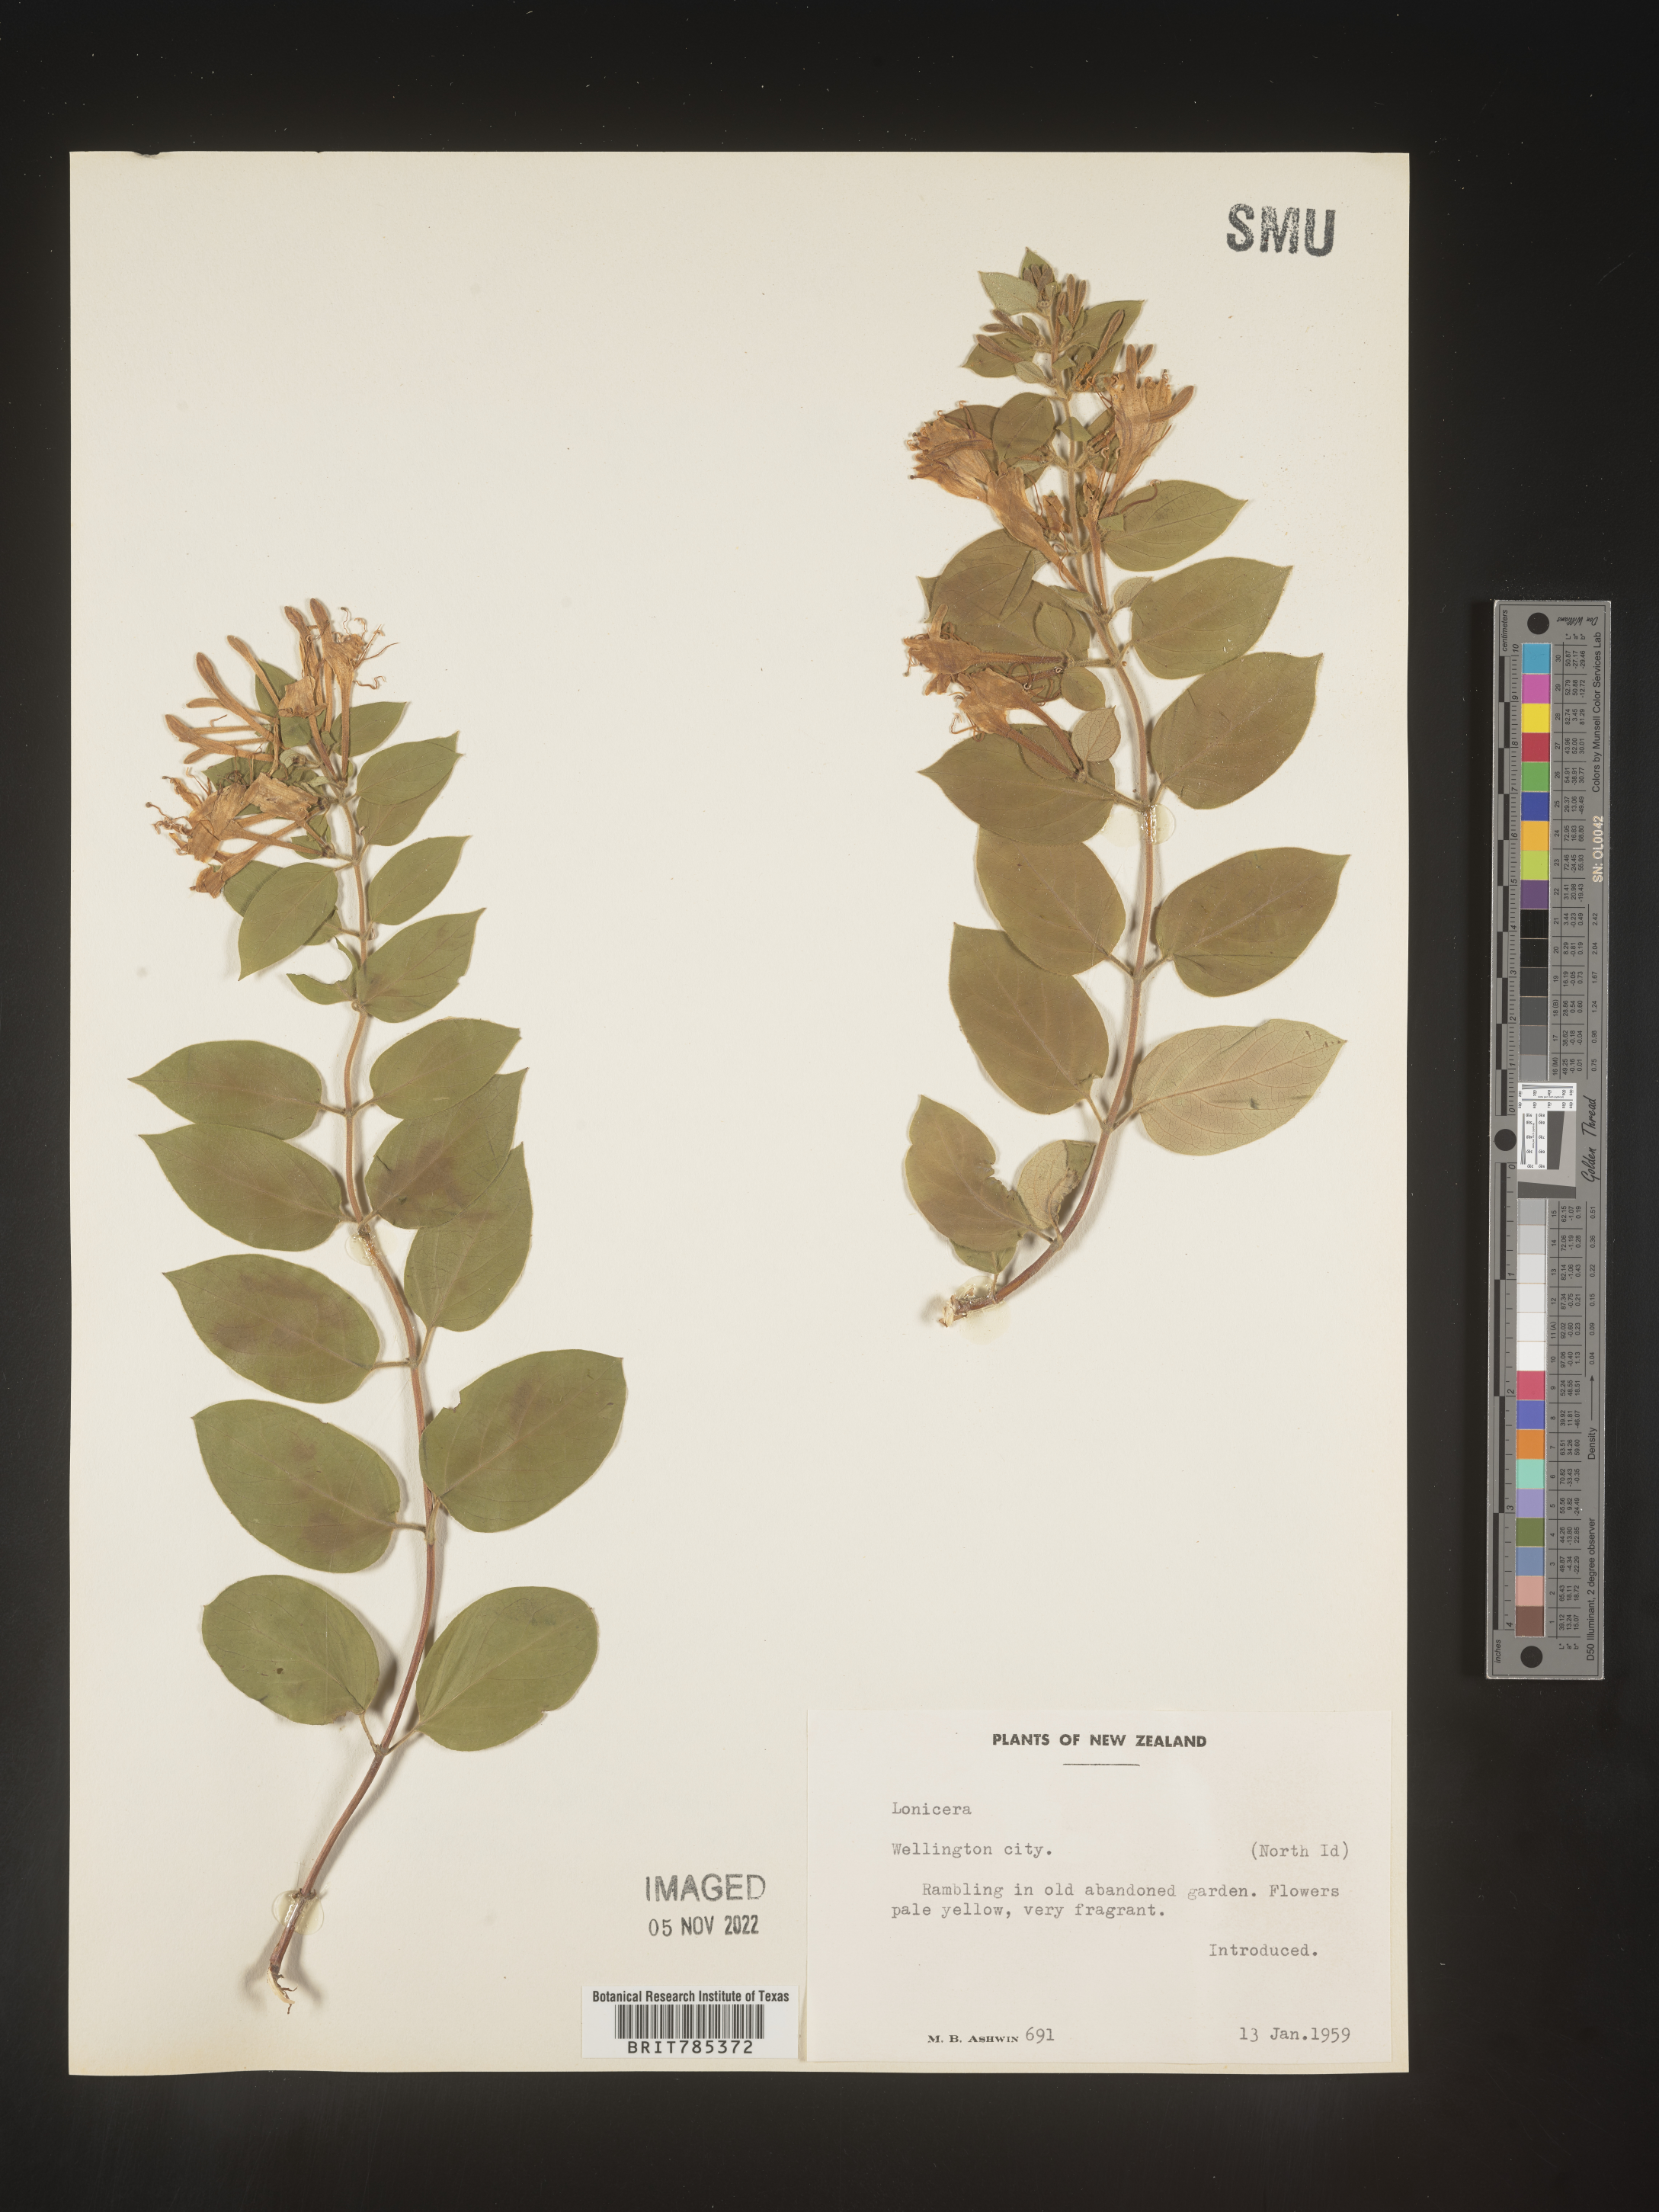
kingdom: Plantae
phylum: Tracheophyta
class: Magnoliopsida
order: Dipsacales
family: Caprifoliaceae
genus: Lonicera
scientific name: Lonicera
